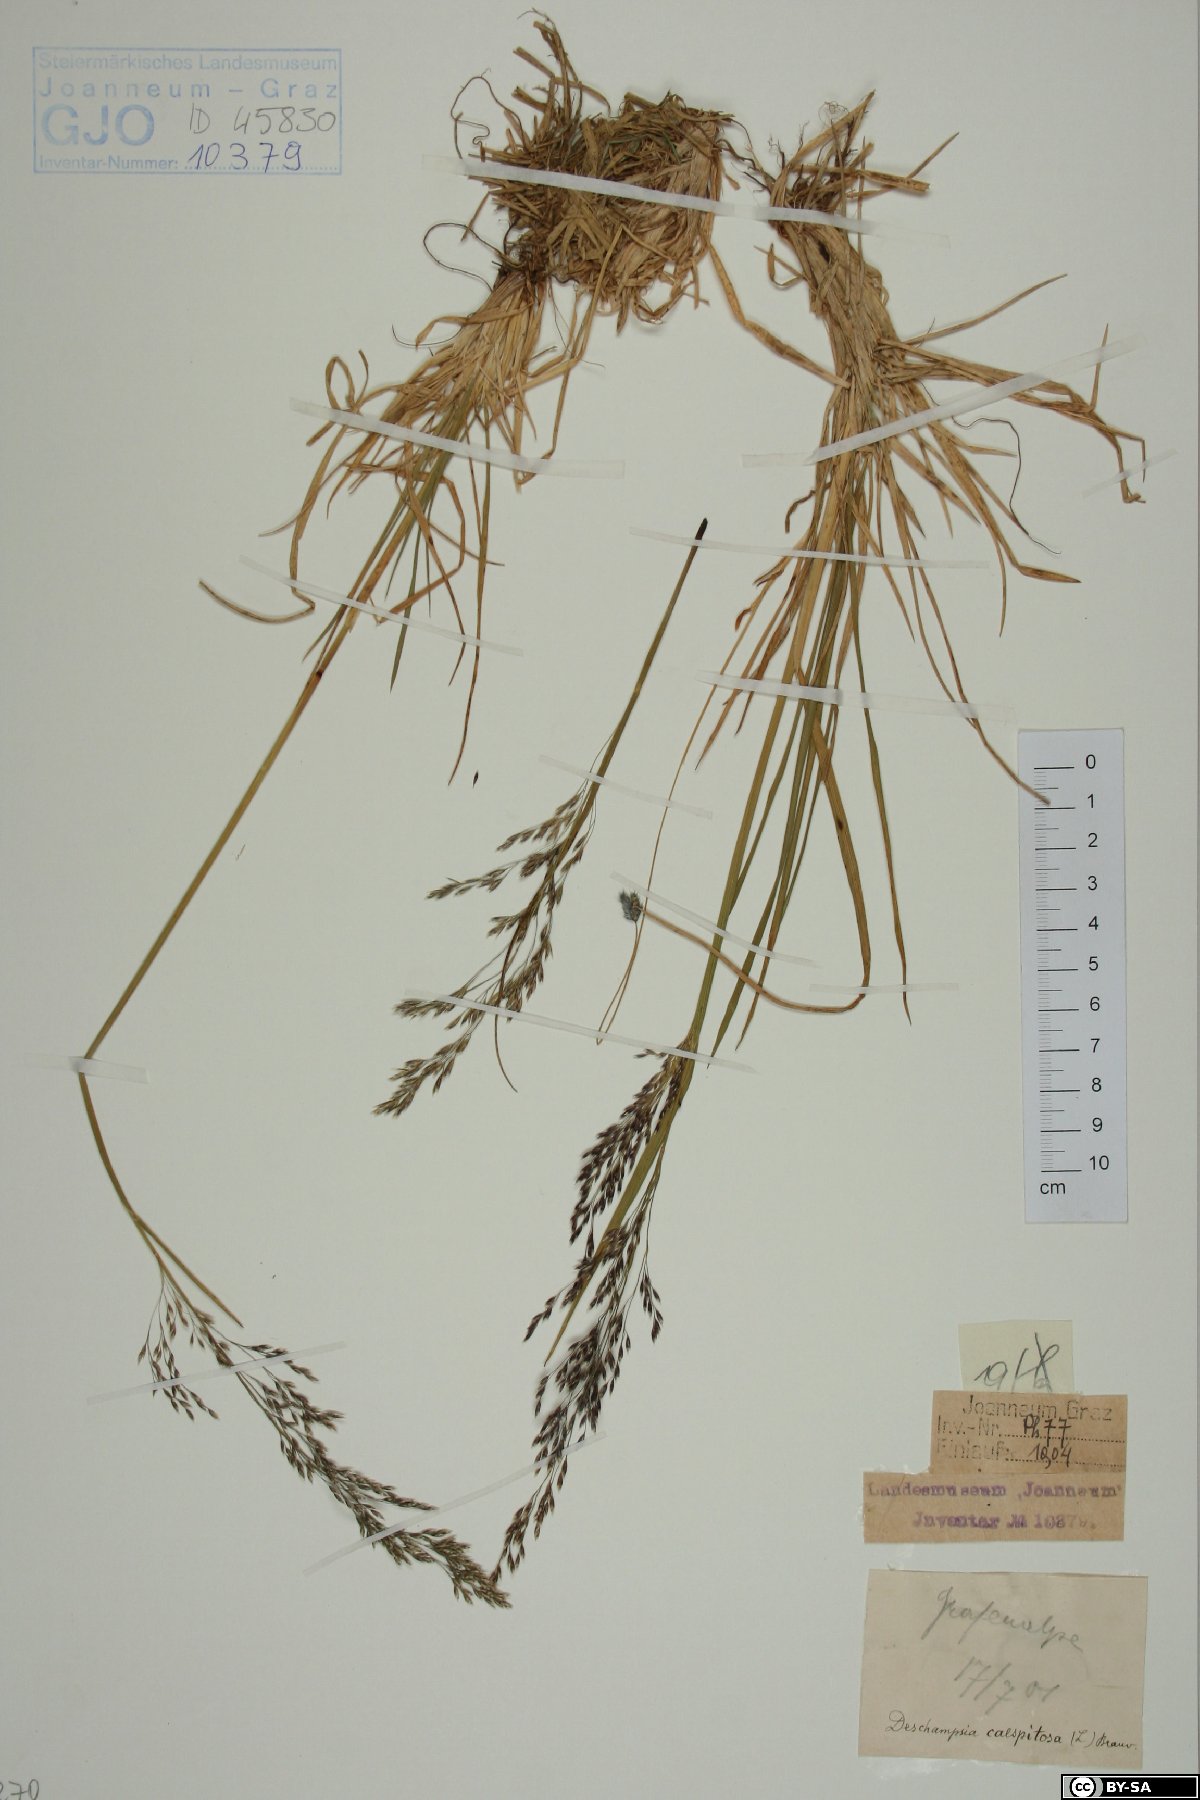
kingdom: Plantae
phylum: Tracheophyta
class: Liliopsida
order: Poales
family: Poaceae
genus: Deschampsia
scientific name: Deschampsia cespitosa
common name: Tufted hair-grass
